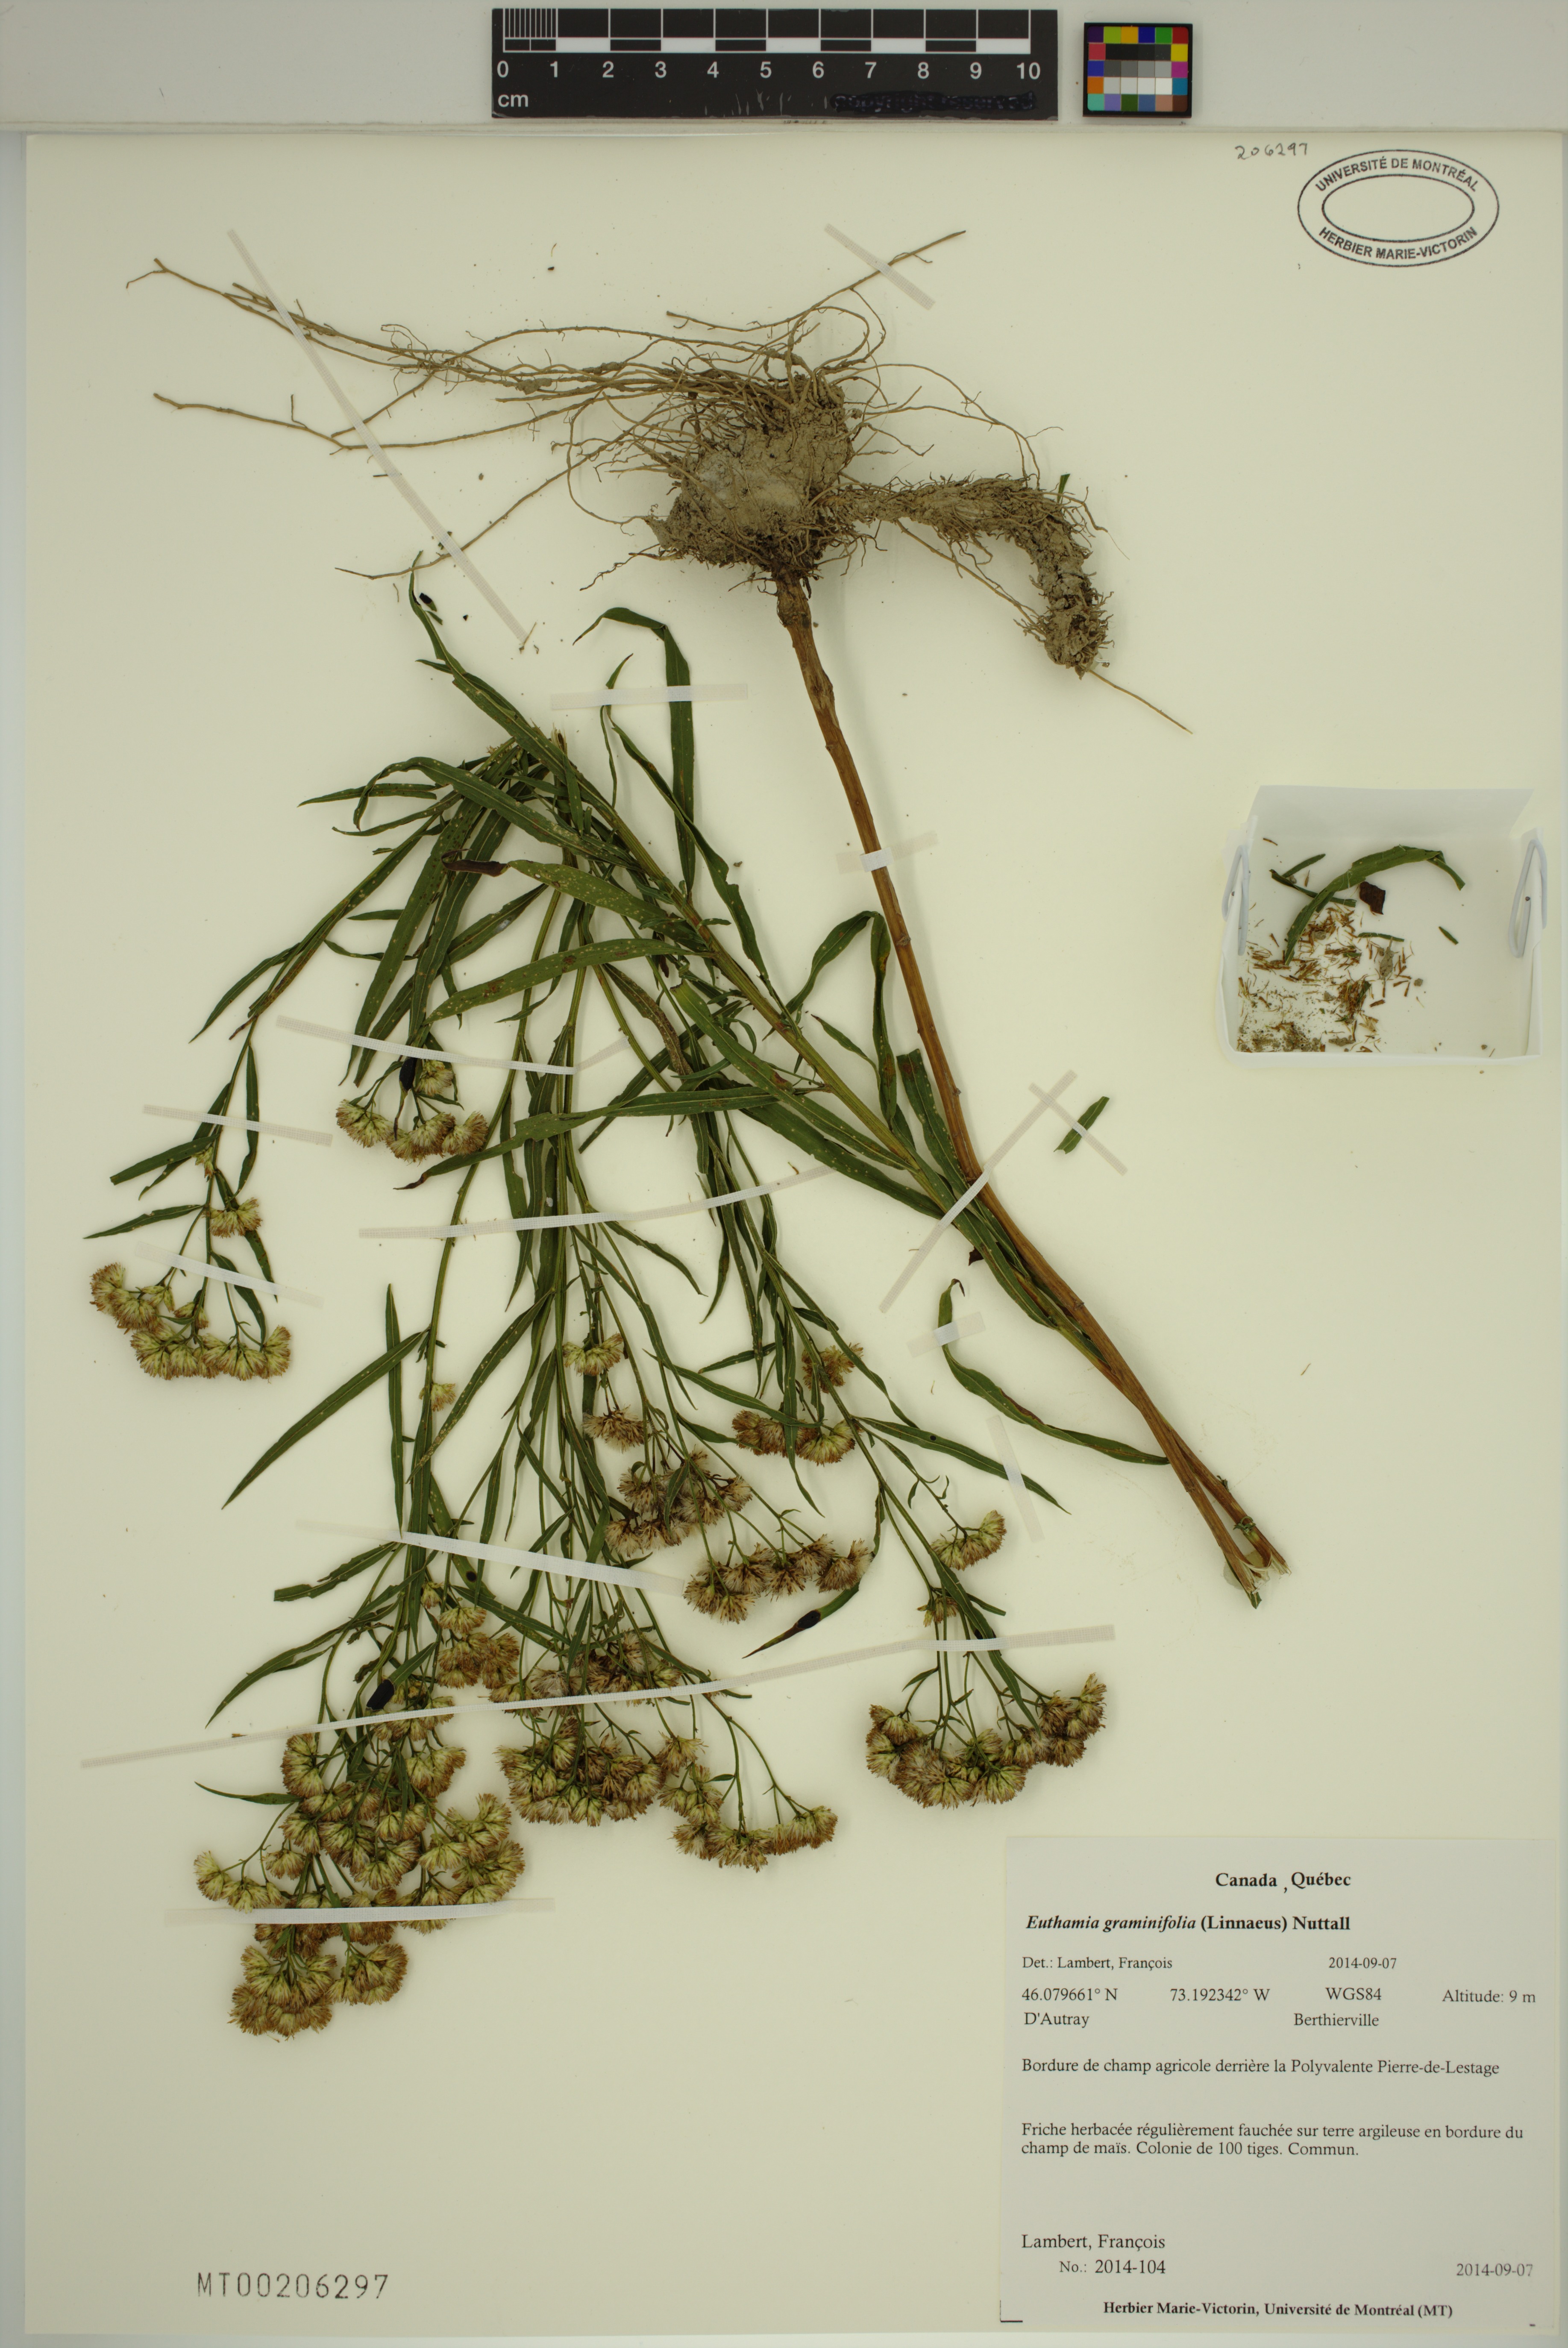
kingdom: Plantae
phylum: Tracheophyta
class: Magnoliopsida
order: Asterales
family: Asteraceae
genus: Euthamia
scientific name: Euthamia graminifolia
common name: Common goldentop
